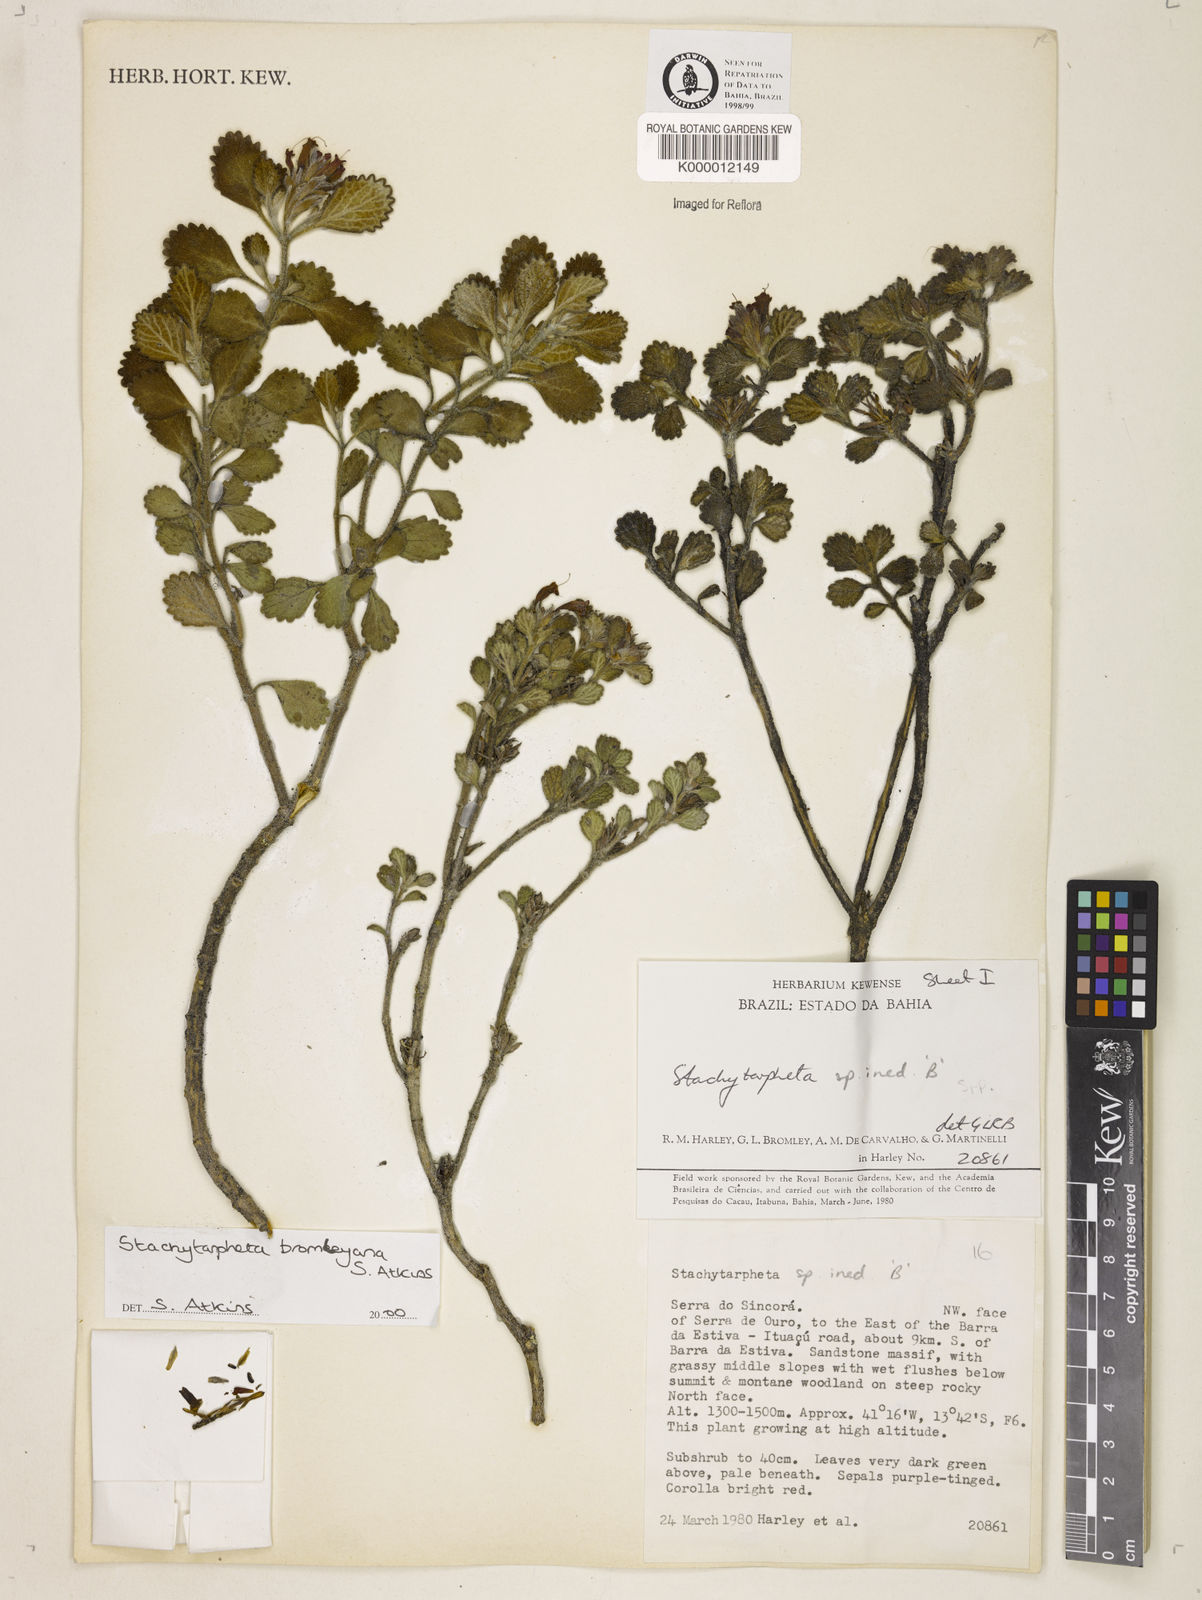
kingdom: Plantae
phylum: Tracheophyta
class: Magnoliopsida
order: Lamiales
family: Verbenaceae
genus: Stachytarpheta
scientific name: Stachytarpheta
